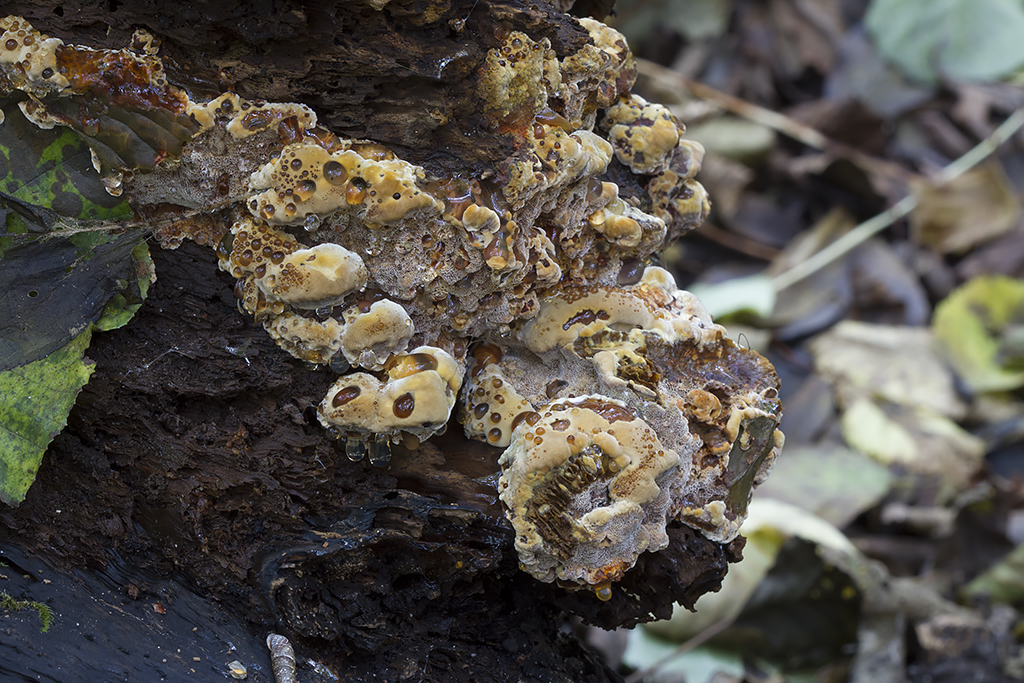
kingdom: Fungi
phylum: Basidiomycota
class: Agaricomycetes
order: Hymenochaetales
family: Hymenochaetaceae
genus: Xanthoporia
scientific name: Xanthoporia radiata
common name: elle-spejlporesvamp
